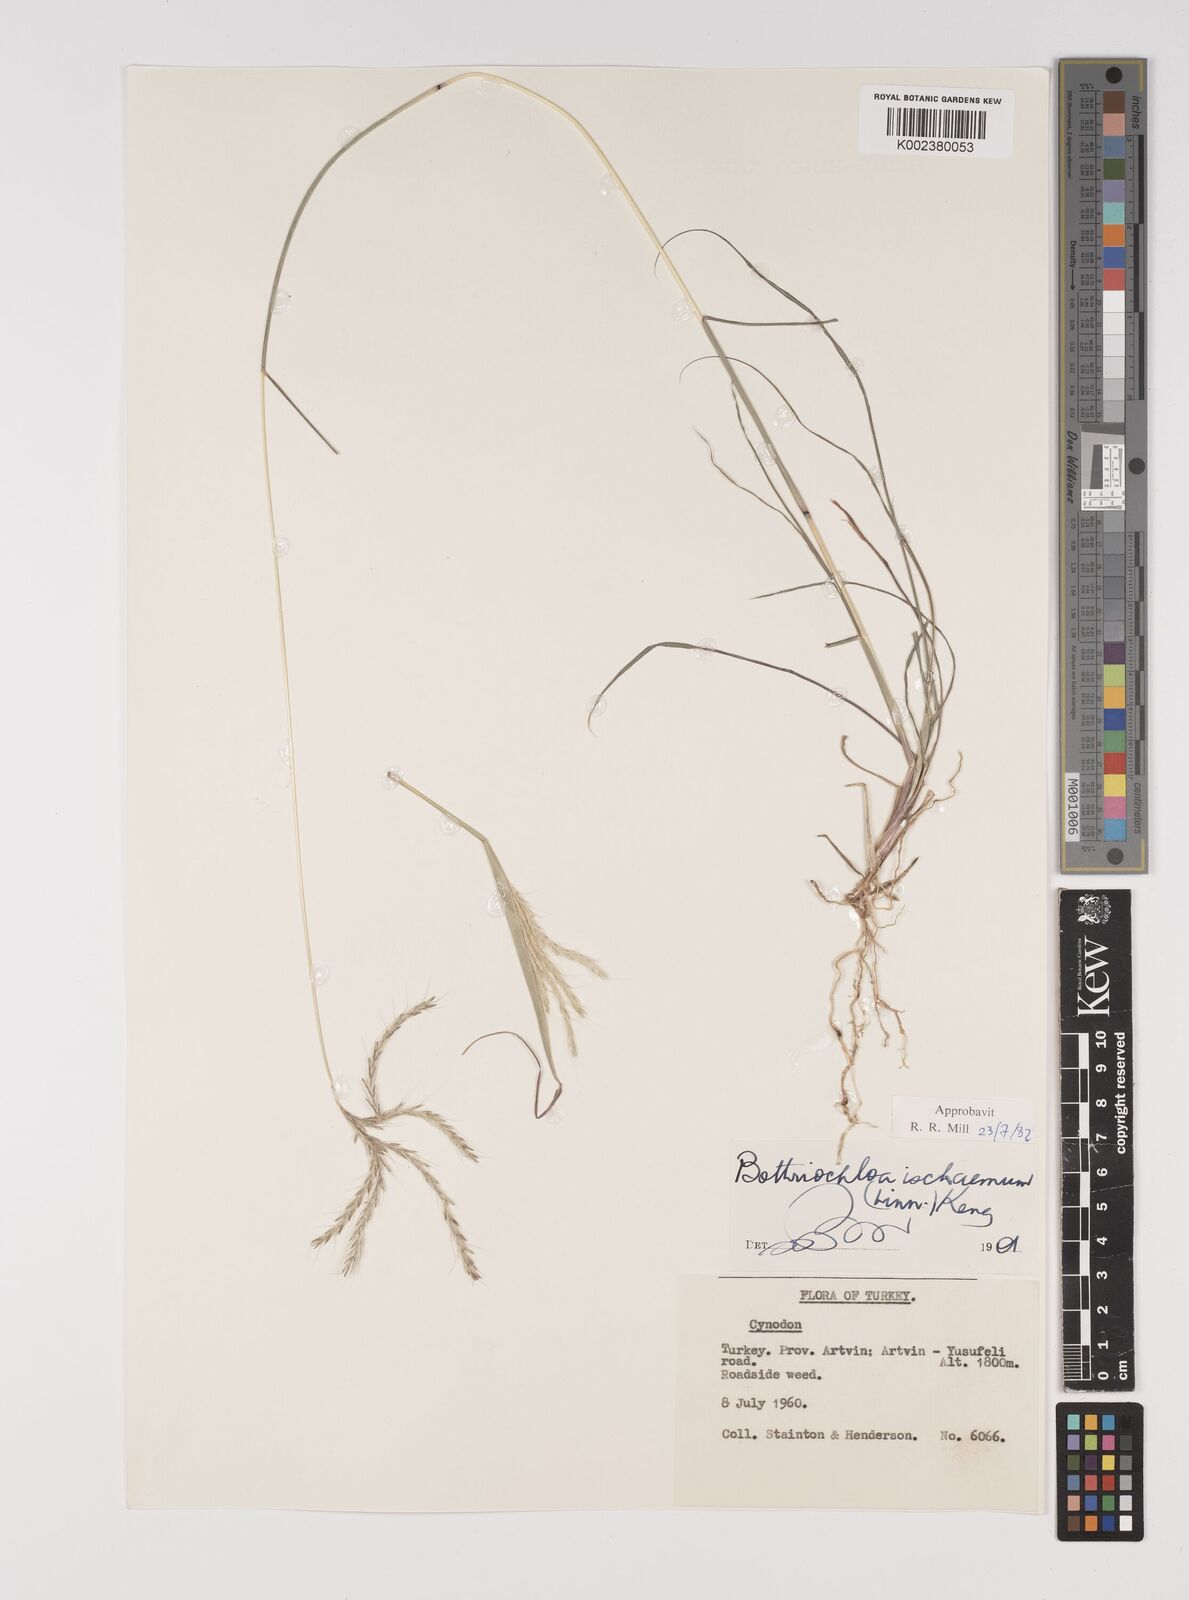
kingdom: Plantae
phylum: Tracheophyta
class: Liliopsida
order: Poales
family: Poaceae
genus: Bothriochloa
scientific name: Bothriochloa ischaemum
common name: Yellow bluestem
